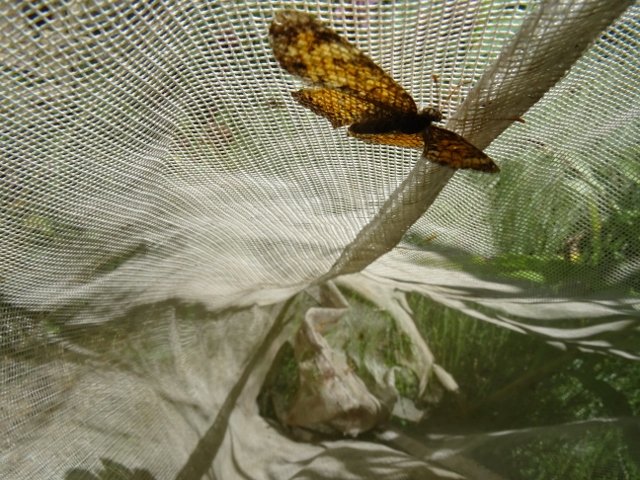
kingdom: Animalia
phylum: Arthropoda
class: Insecta
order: Lepidoptera
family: Nymphalidae
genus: Phyciodes
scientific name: Phyciodes tharos
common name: Northern Crescent
